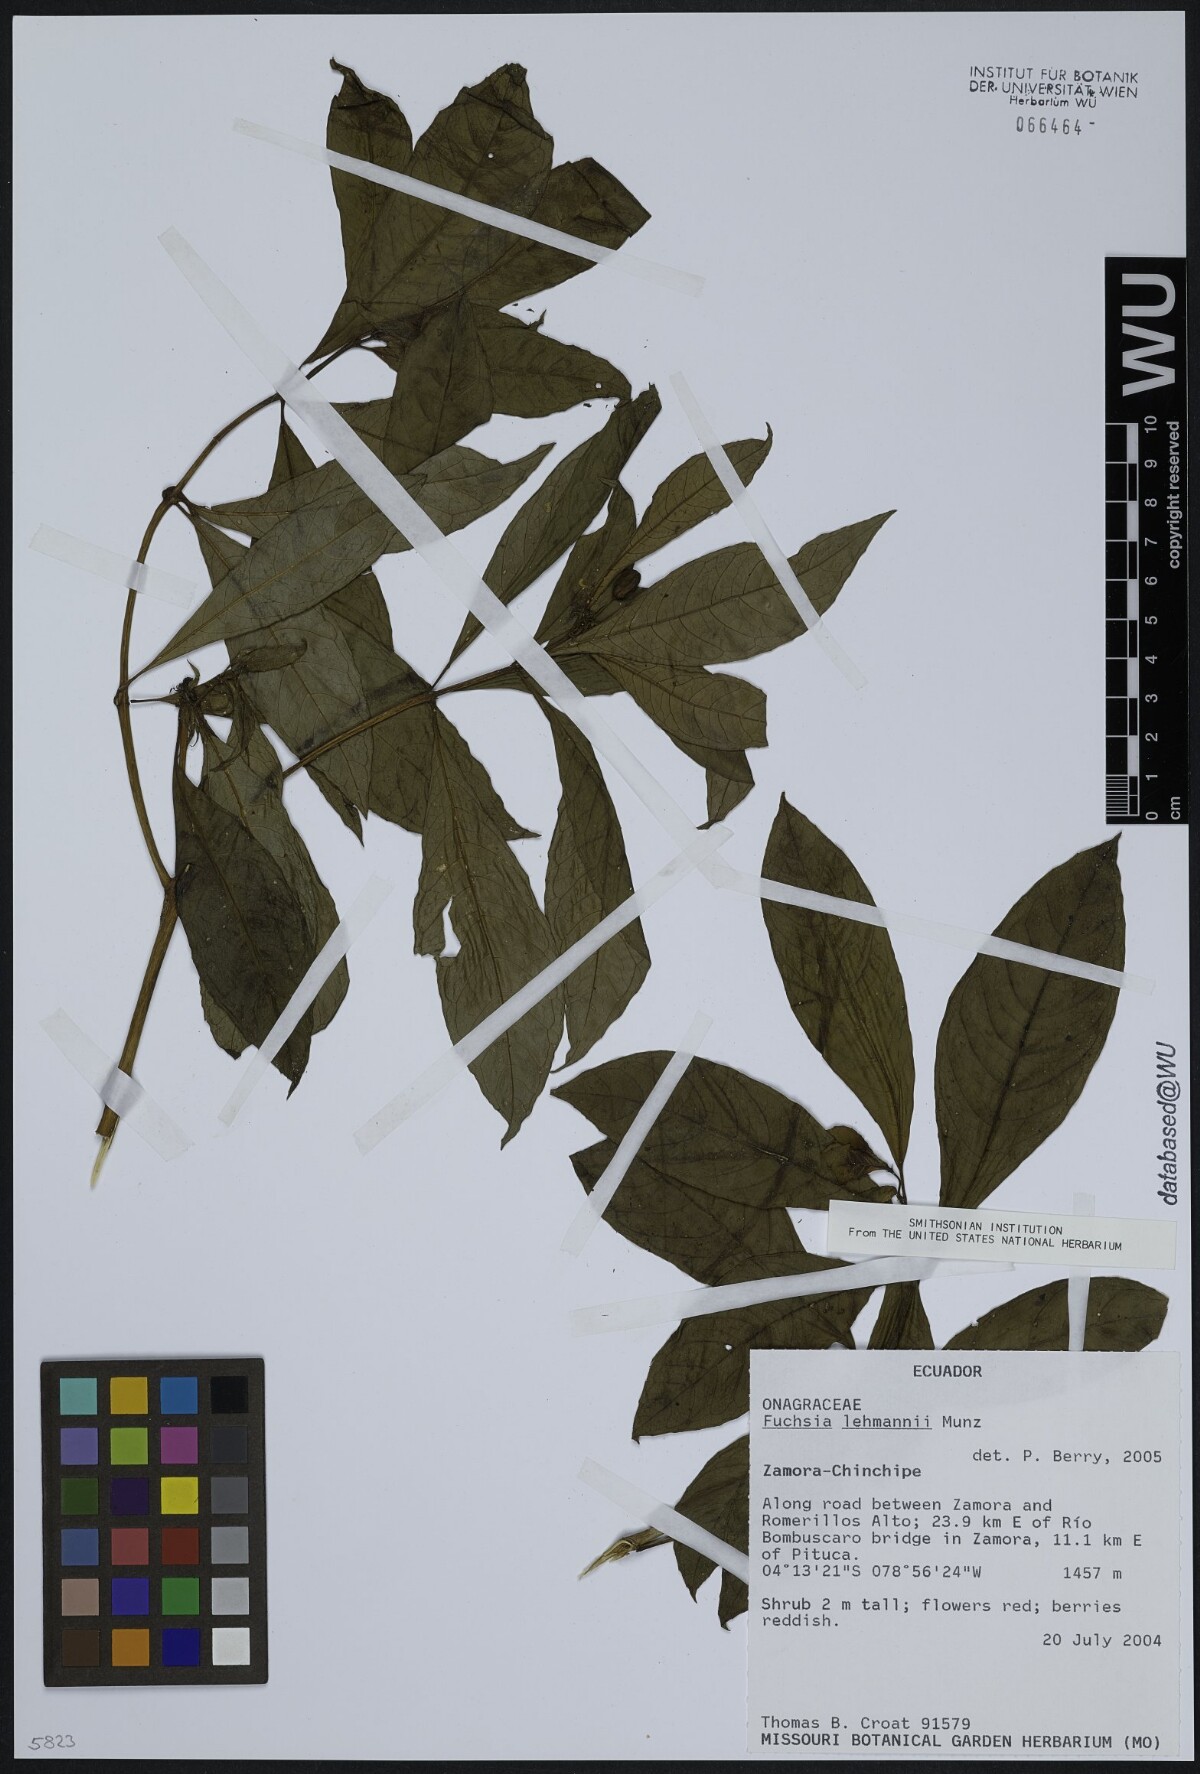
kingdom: Plantae
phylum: Tracheophyta
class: Magnoliopsida
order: Myrtales
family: Onagraceae
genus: Fuchsia
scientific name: Fuchsia lehmannii
